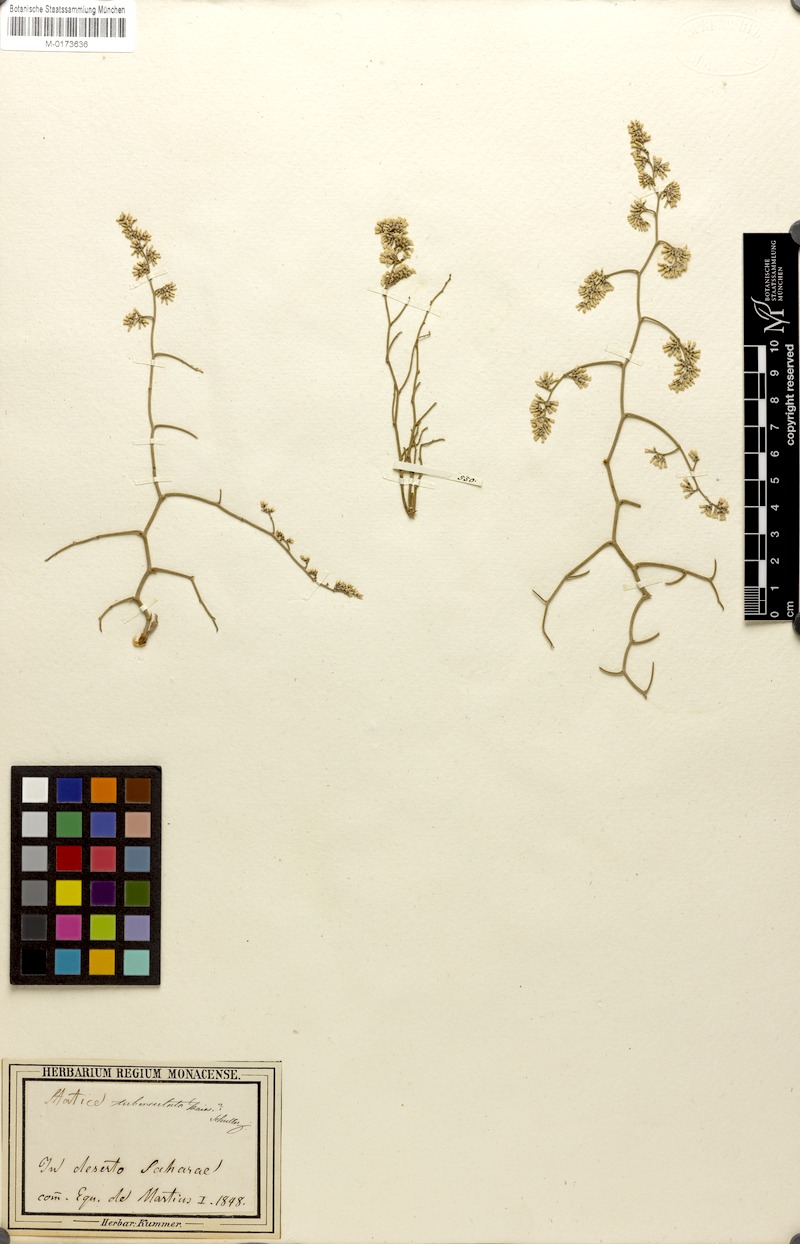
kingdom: Plantae
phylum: Tracheophyta
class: Magnoliopsida
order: Caryophyllales
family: Plumbaginaceae
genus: Limonium
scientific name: Limonium tuberculatum
